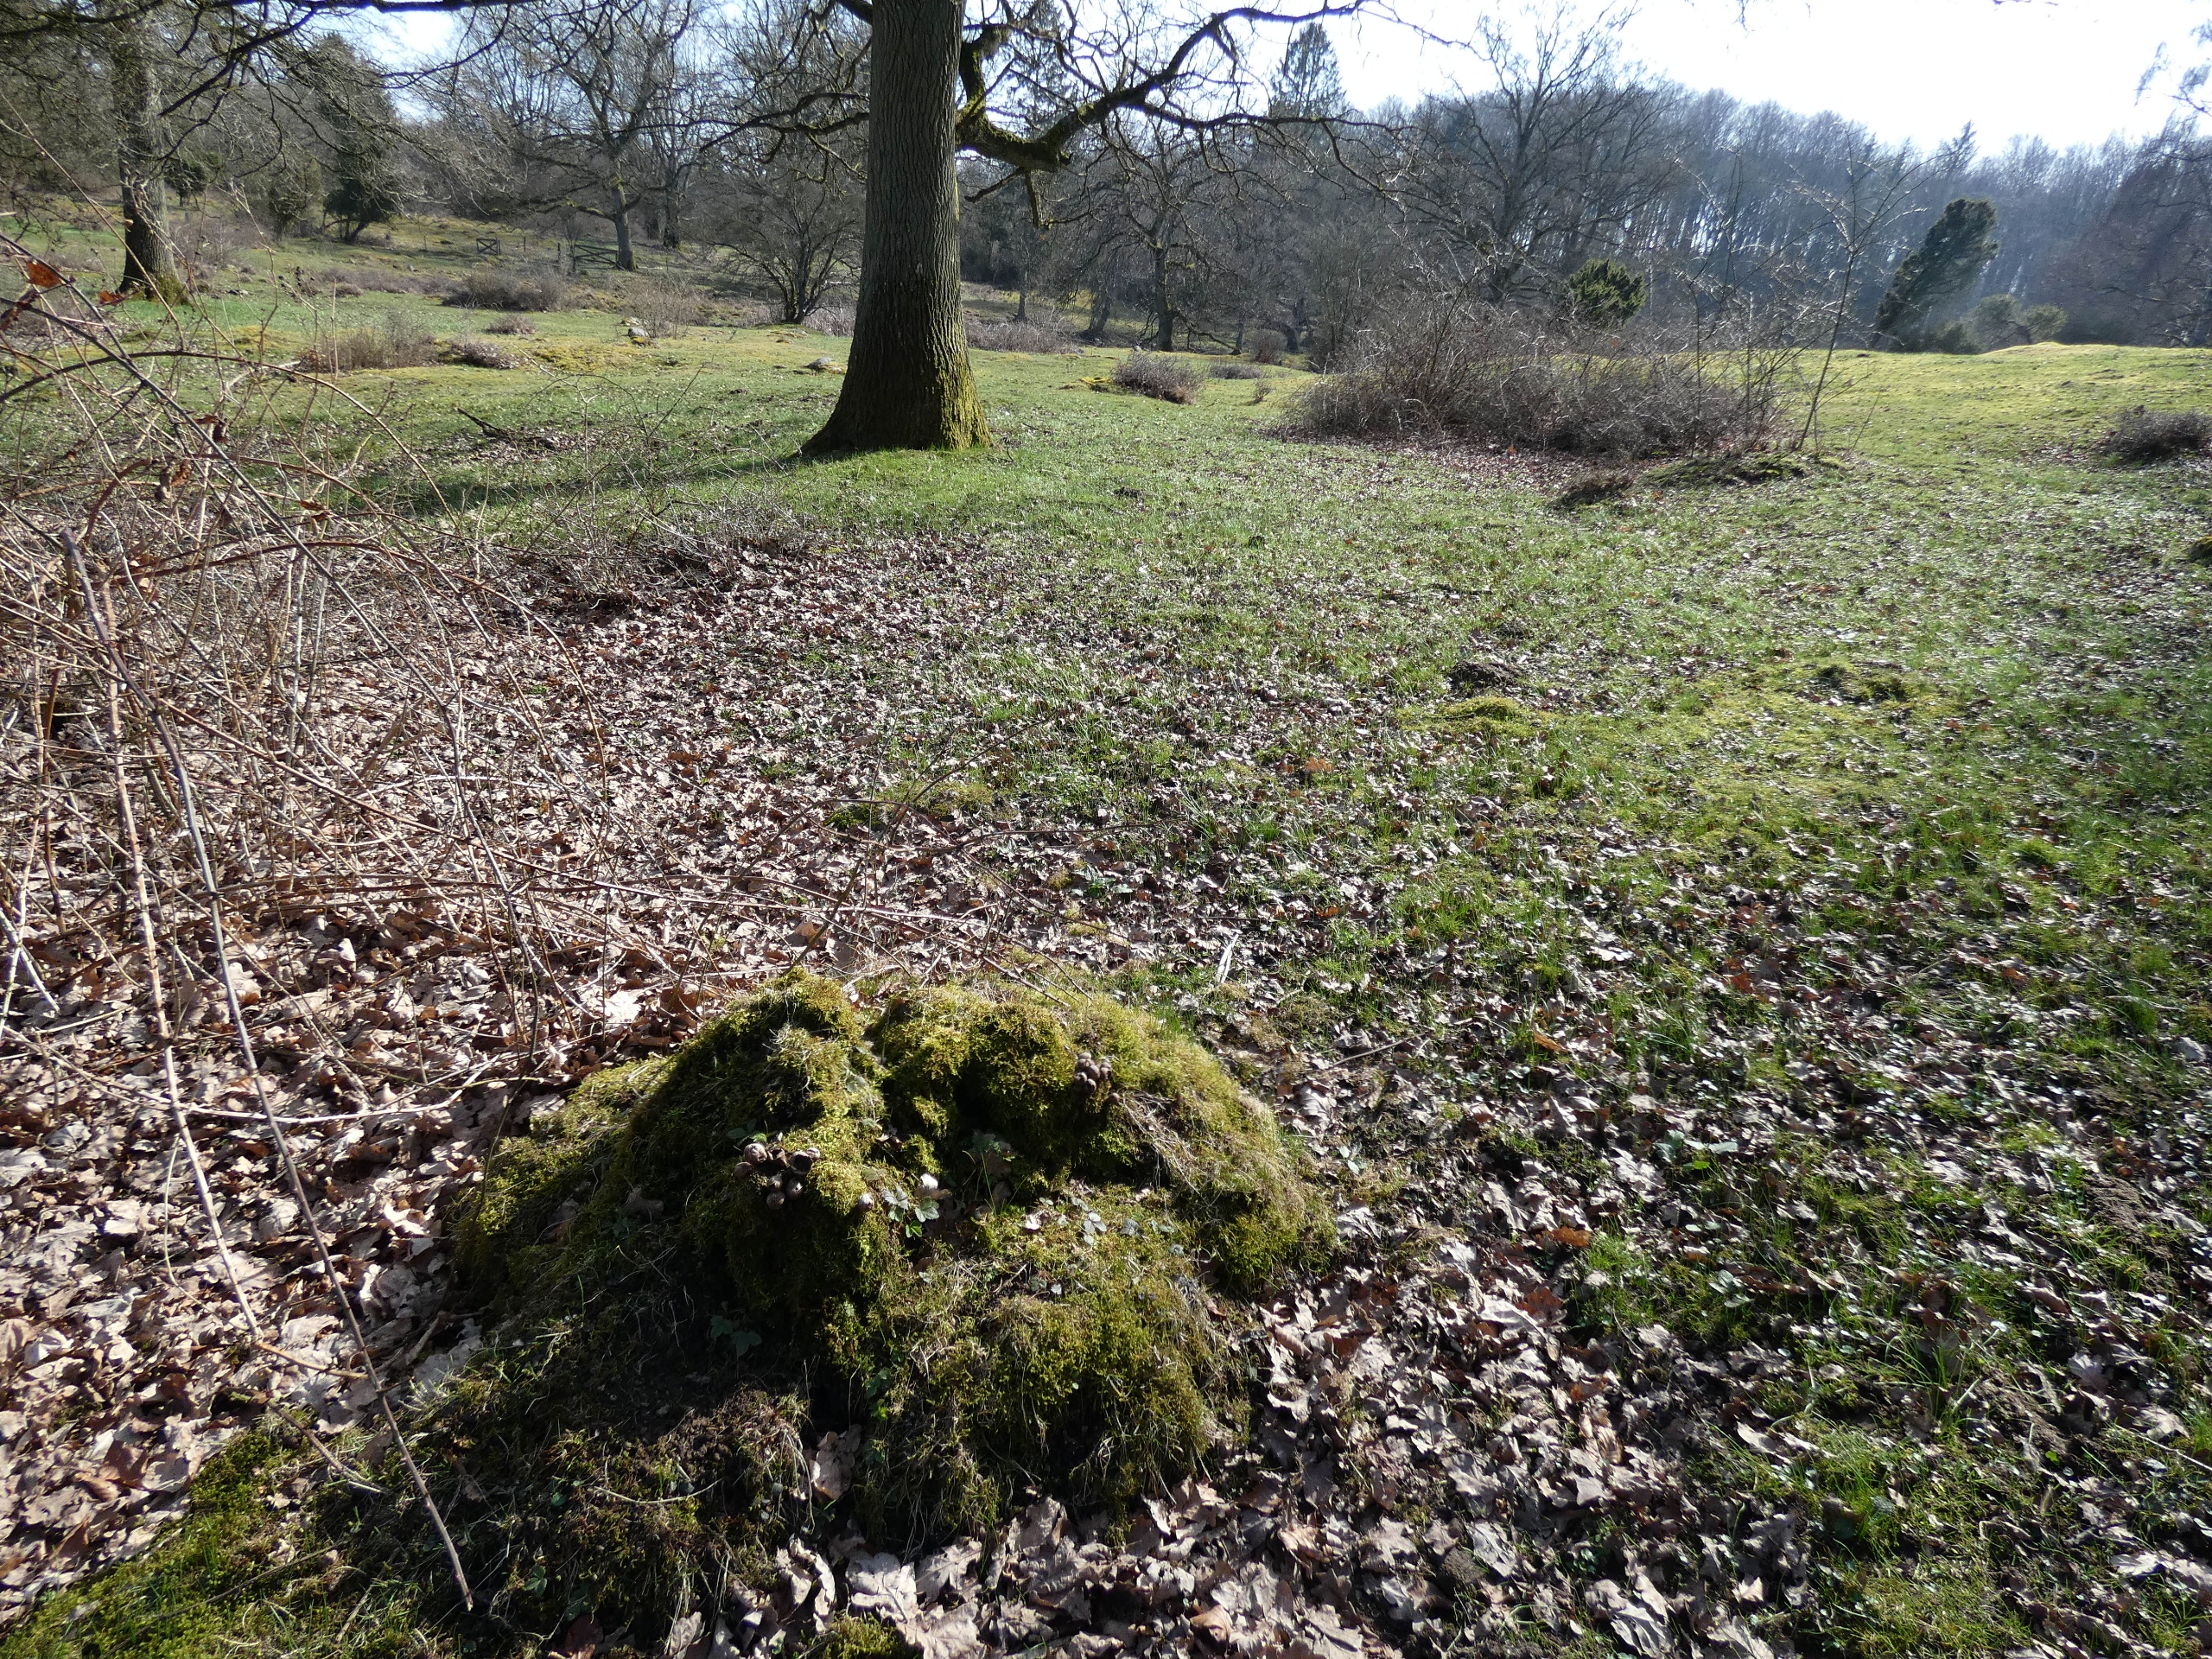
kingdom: Fungi
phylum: Basidiomycota
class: Agaricomycetes
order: Agaricales
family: Lycoperdaceae
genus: Apioperdon
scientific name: Apioperdon pyriforme
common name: Pære-støvbold
